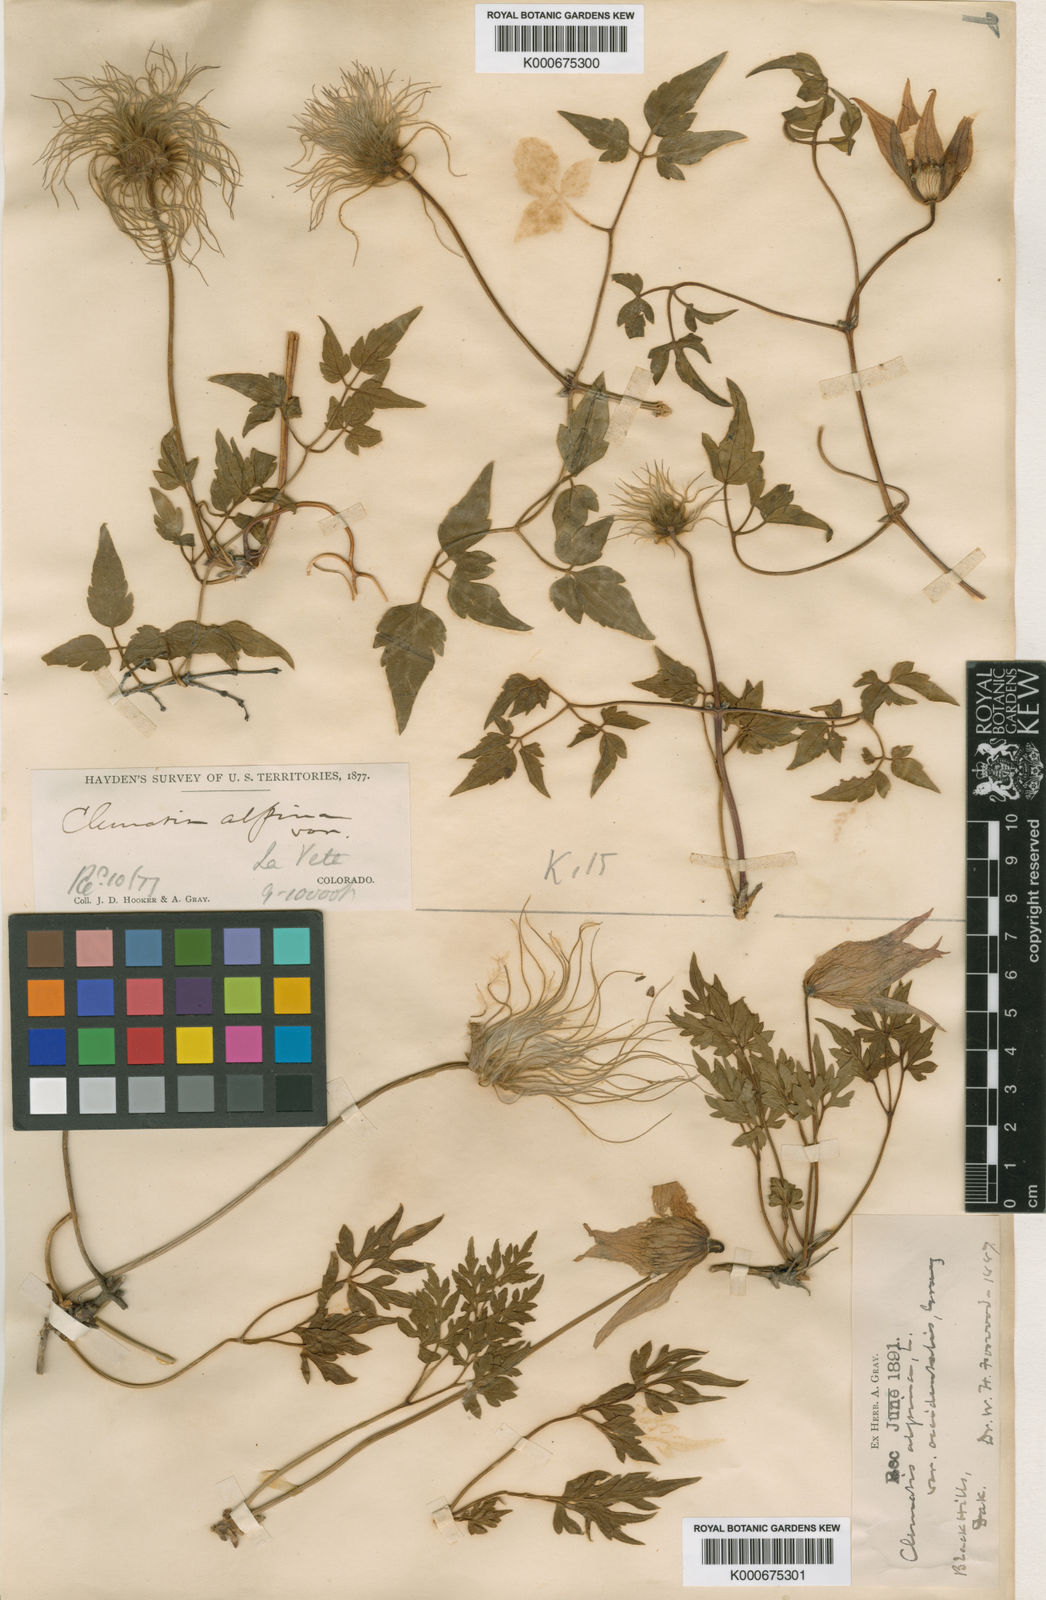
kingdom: Plantae
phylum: Tracheophyta
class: Magnoliopsida
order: Ranunculales
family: Ranunculaceae
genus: Clematis
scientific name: Clematis ochotensis
